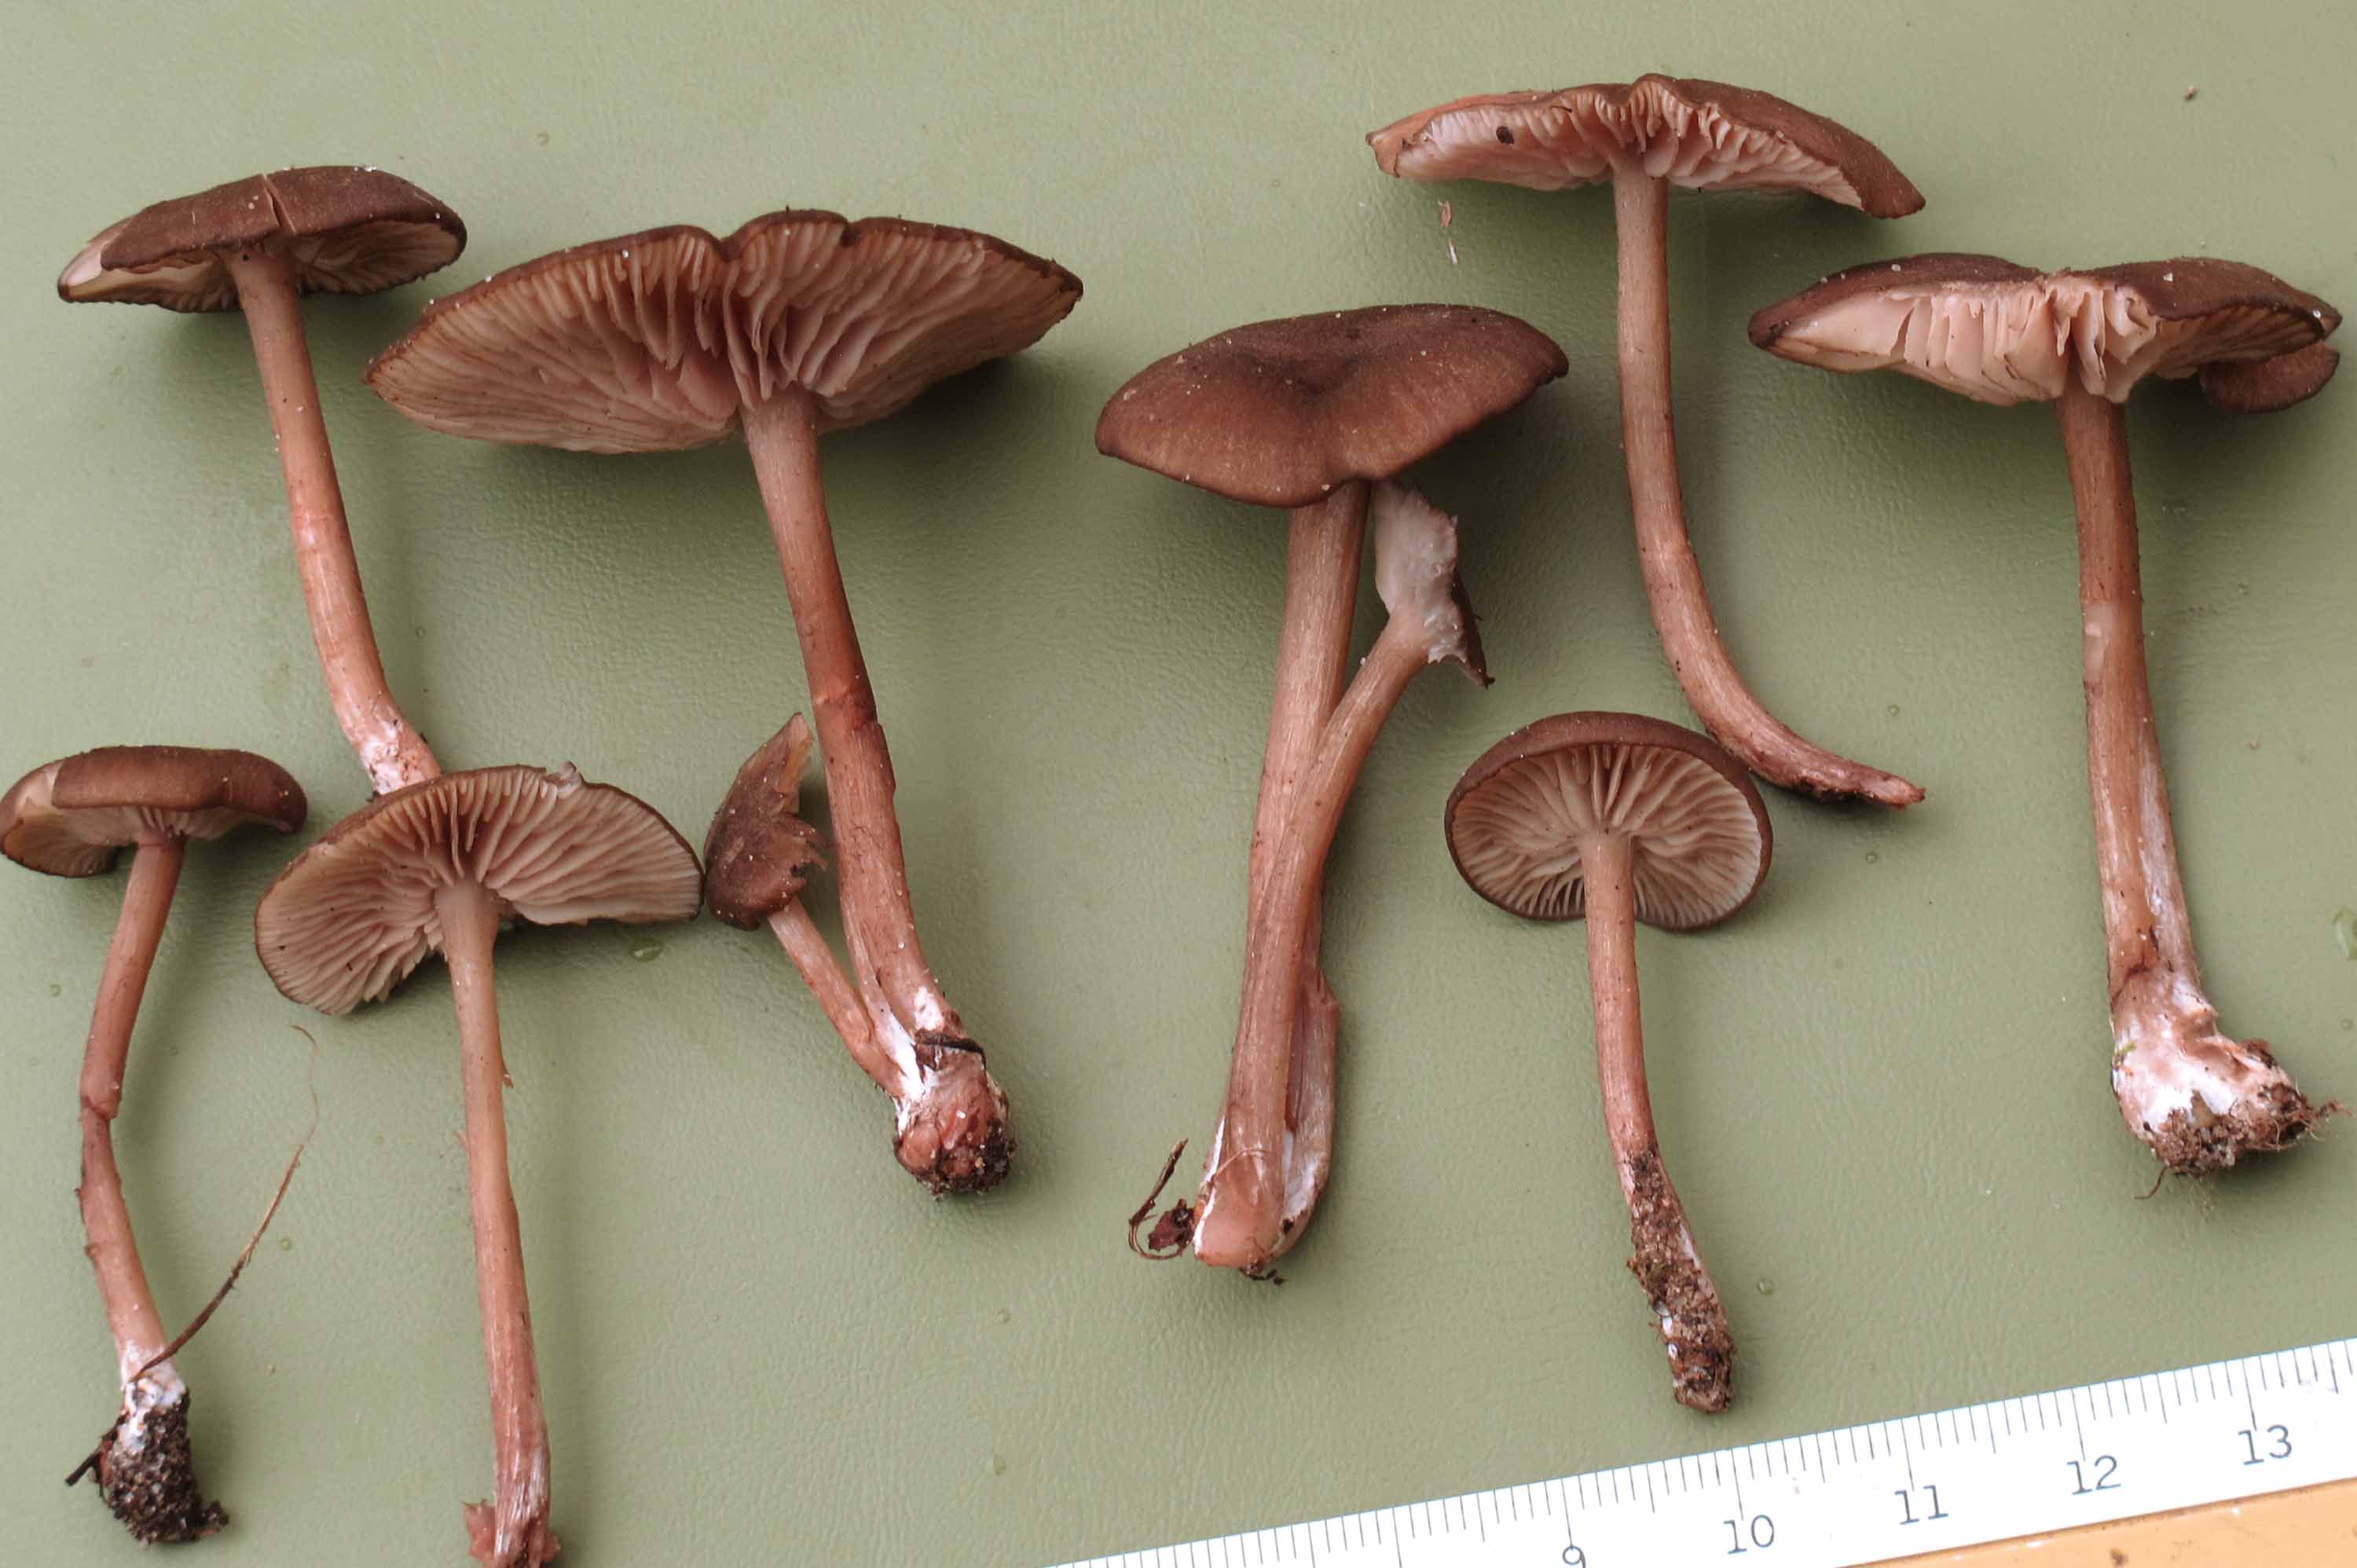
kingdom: Fungi
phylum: Basidiomycota
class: Agaricomycetes
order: Agaricales
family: Entolomataceae
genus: Entoloma
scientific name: Entoloma turci
